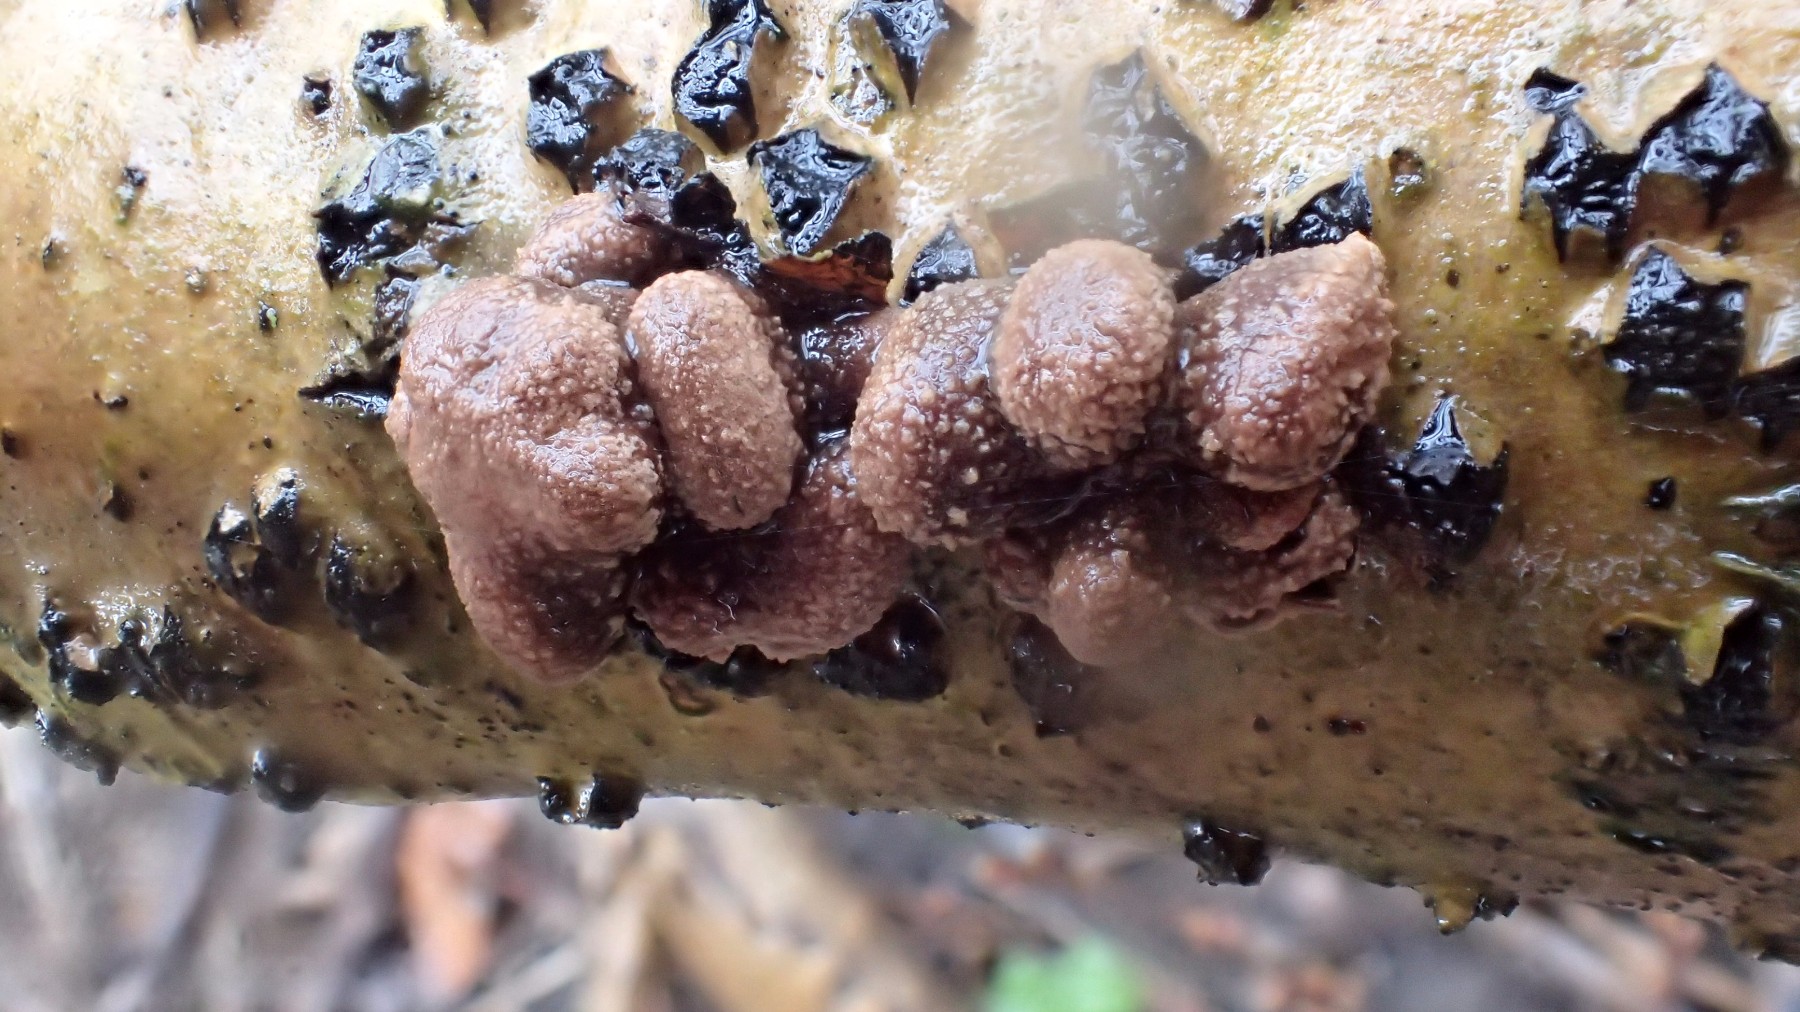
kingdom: Fungi
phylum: Ascomycota
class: Leotiomycetes
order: Helotiales
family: Cenangiaceae
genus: Encoelia
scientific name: Encoelia furfuracea
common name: hassel-læderskive
